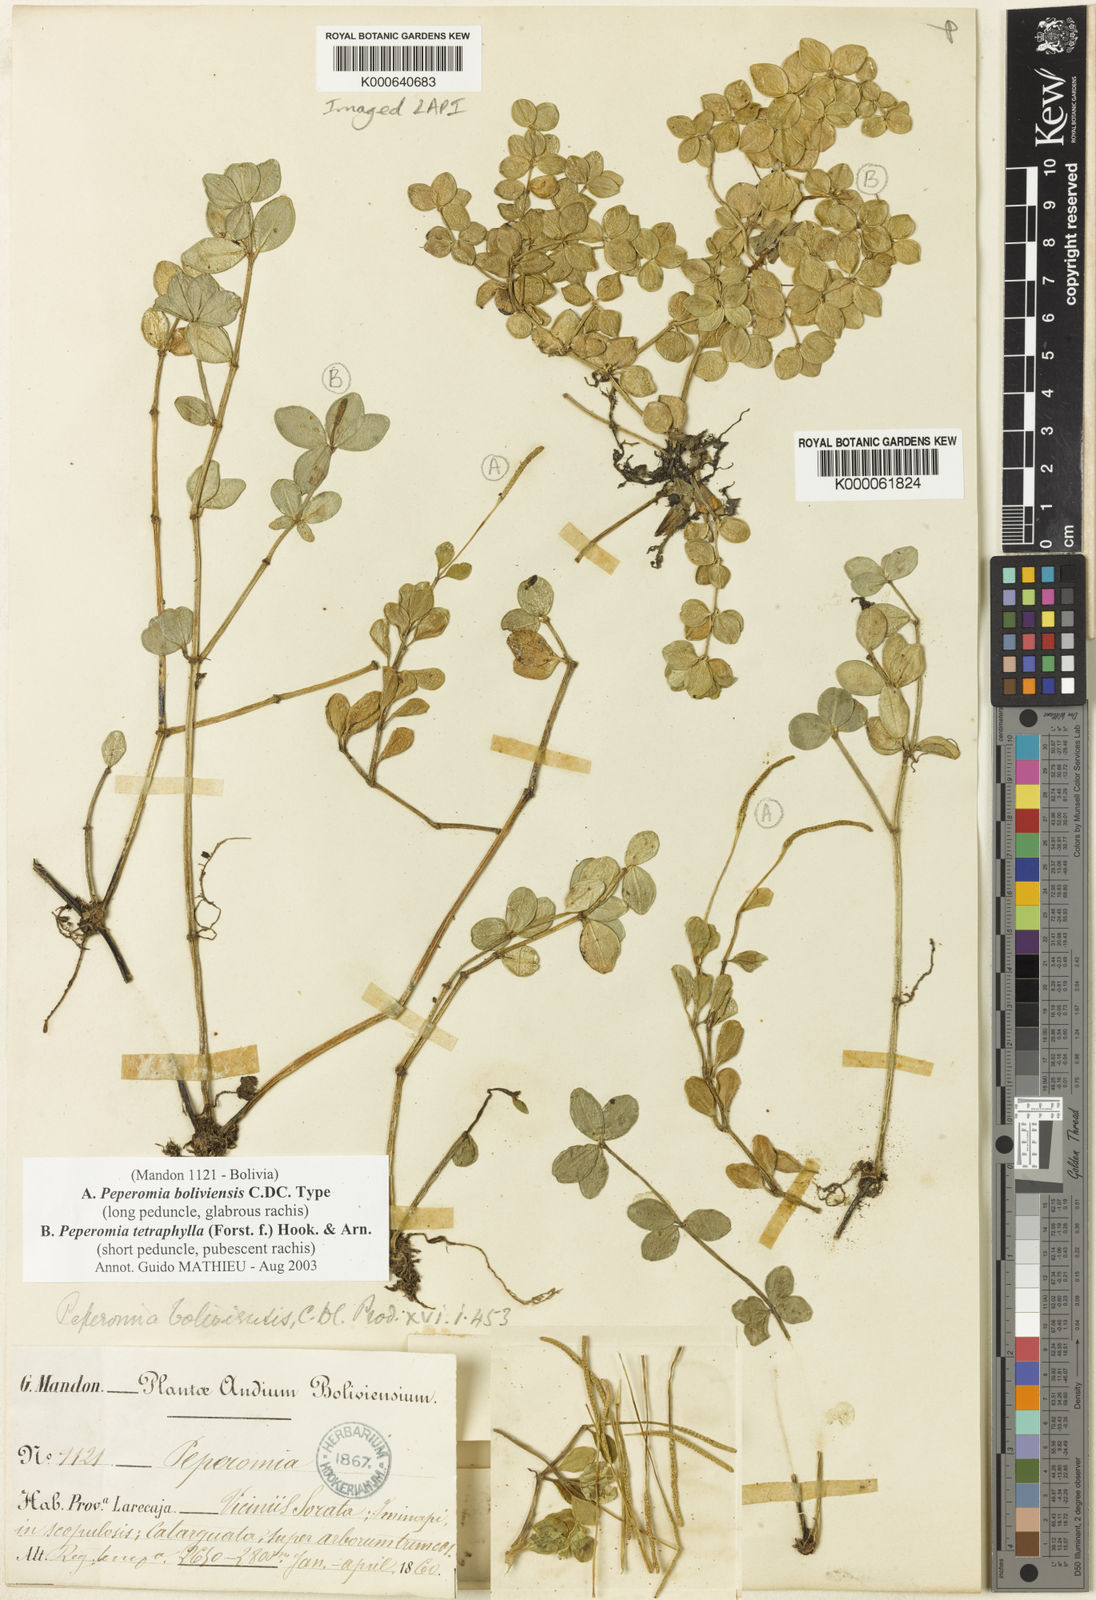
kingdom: Plantae
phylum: Tracheophyta
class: Magnoliopsida
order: Piperales
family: Piperaceae
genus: Peperomia
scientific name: Peperomia boliviensis
